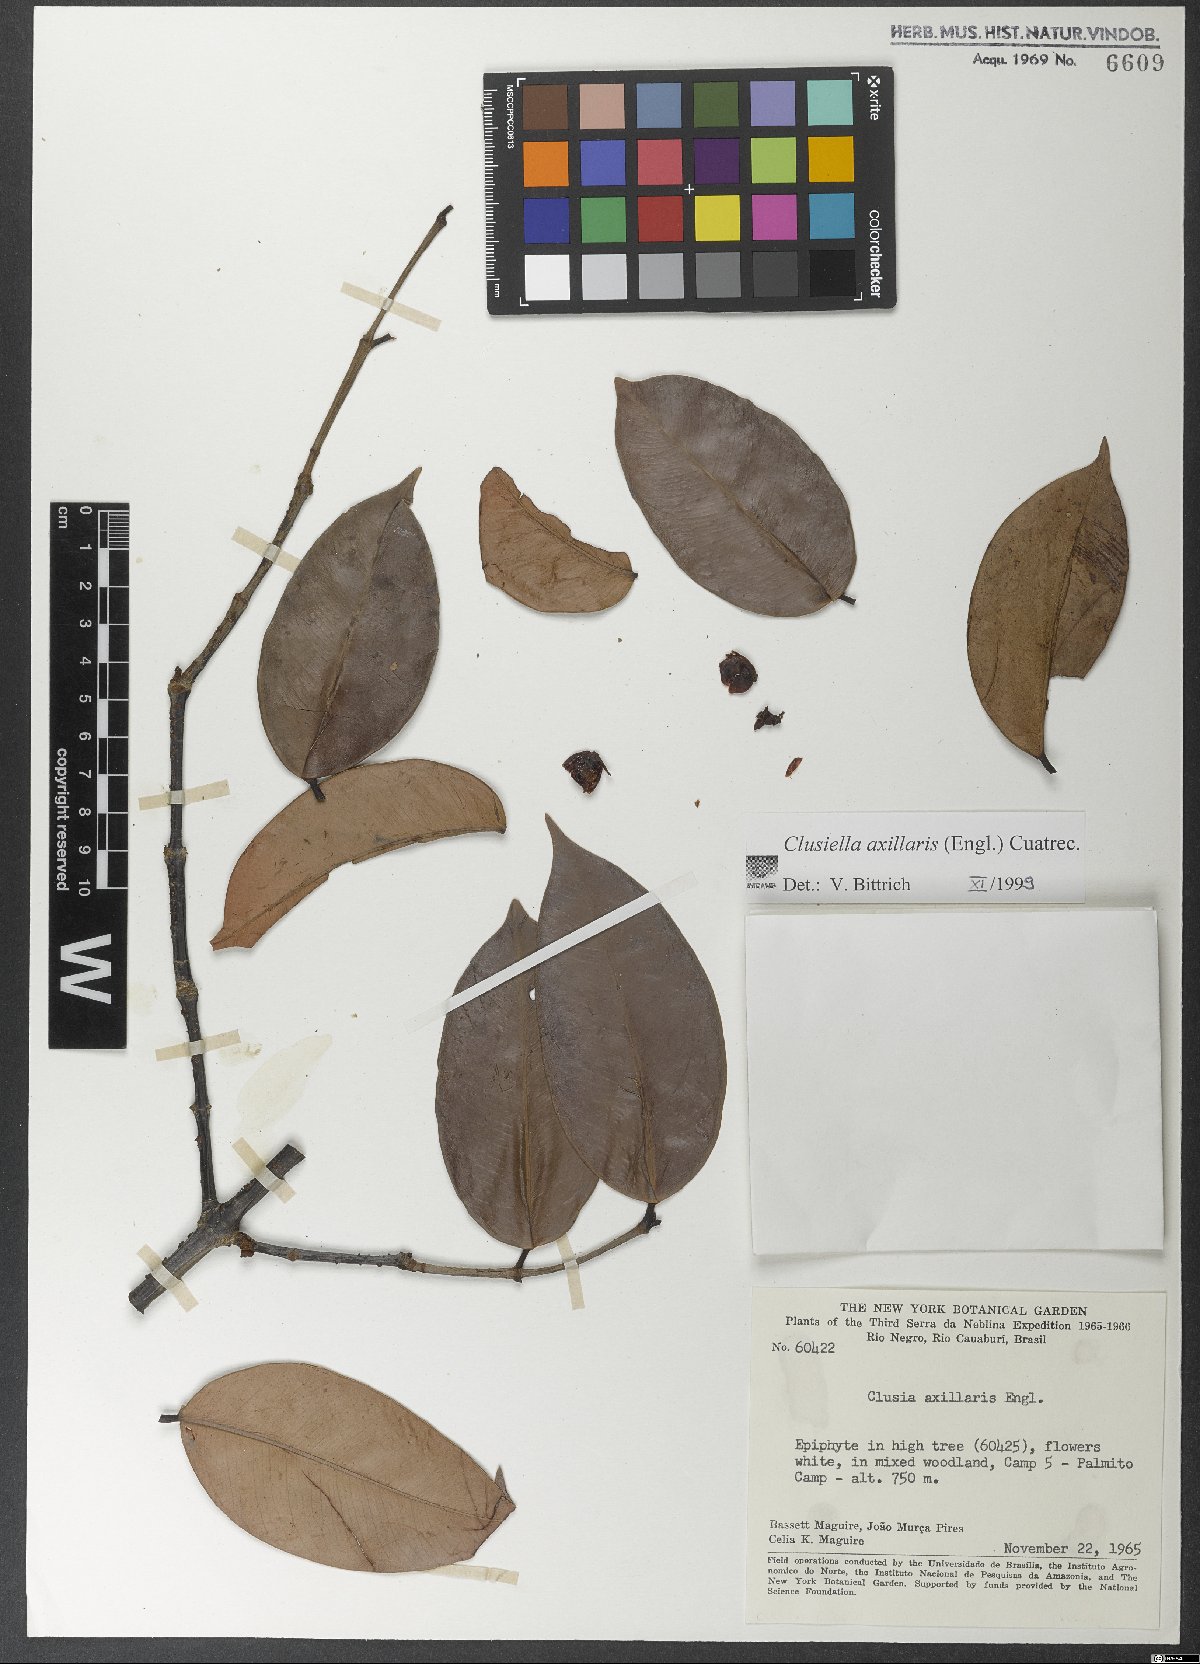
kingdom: Plantae
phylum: Tracheophyta
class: Magnoliopsida
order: Malpighiales
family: Calophyllaceae
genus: Clusiella
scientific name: Clusiella axillaris
